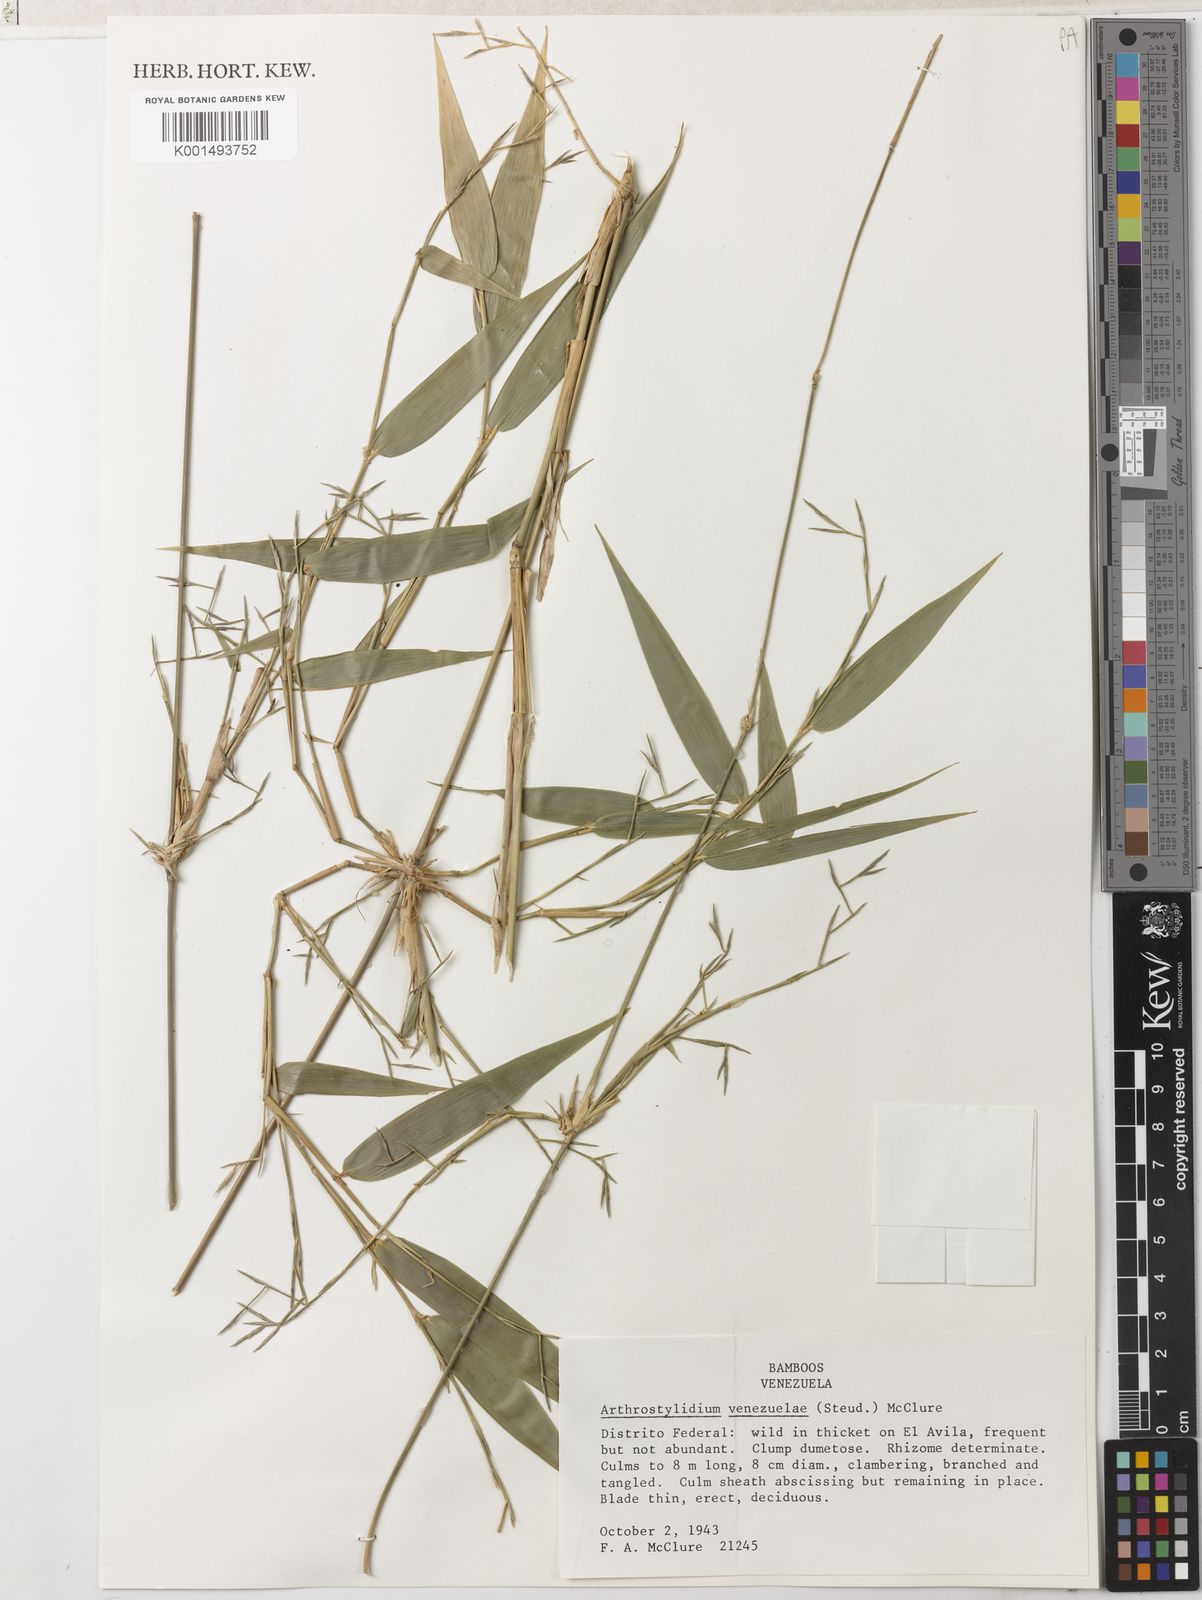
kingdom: Plantae
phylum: Tracheophyta
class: Liliopsida
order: Poales
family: Poaceae
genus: Arthrostylidium
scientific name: Arthrostylidium venezuelae
